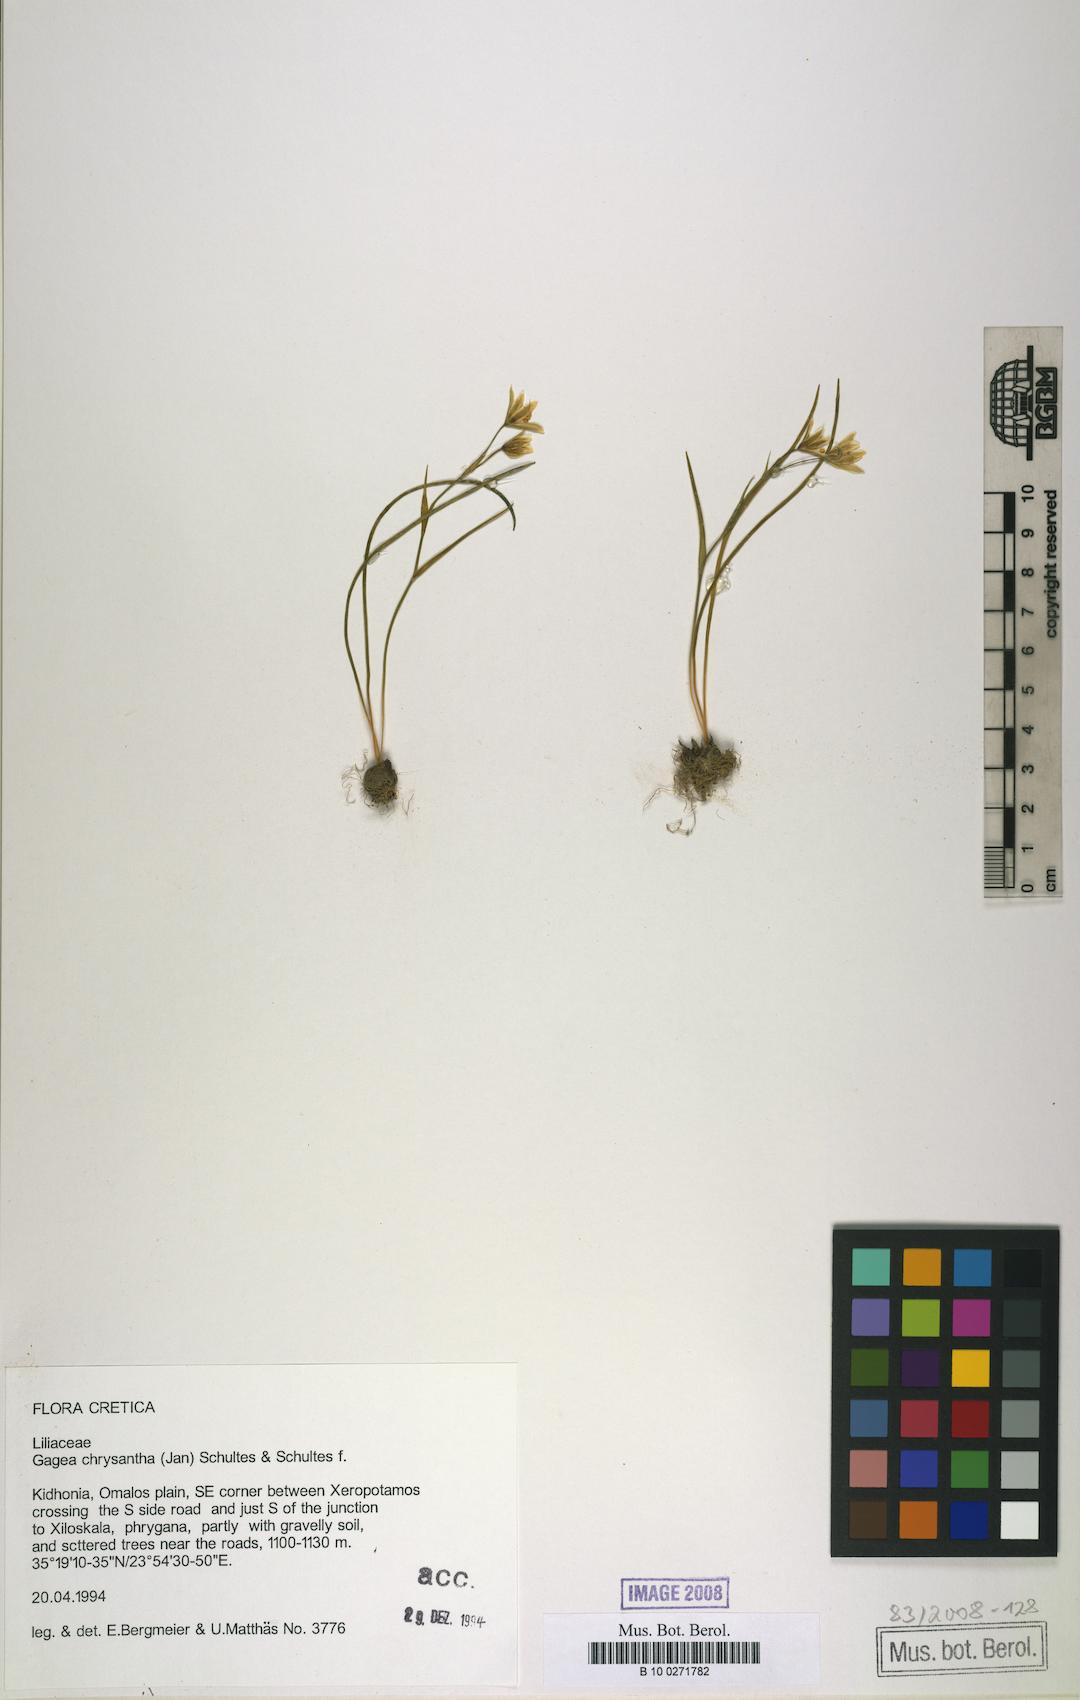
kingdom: Plantae
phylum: Tracheophyta
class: Liliopsida
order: Liliales
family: Liliaceae
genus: Gagea
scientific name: Gagea chrysantha
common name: Golden gagea
